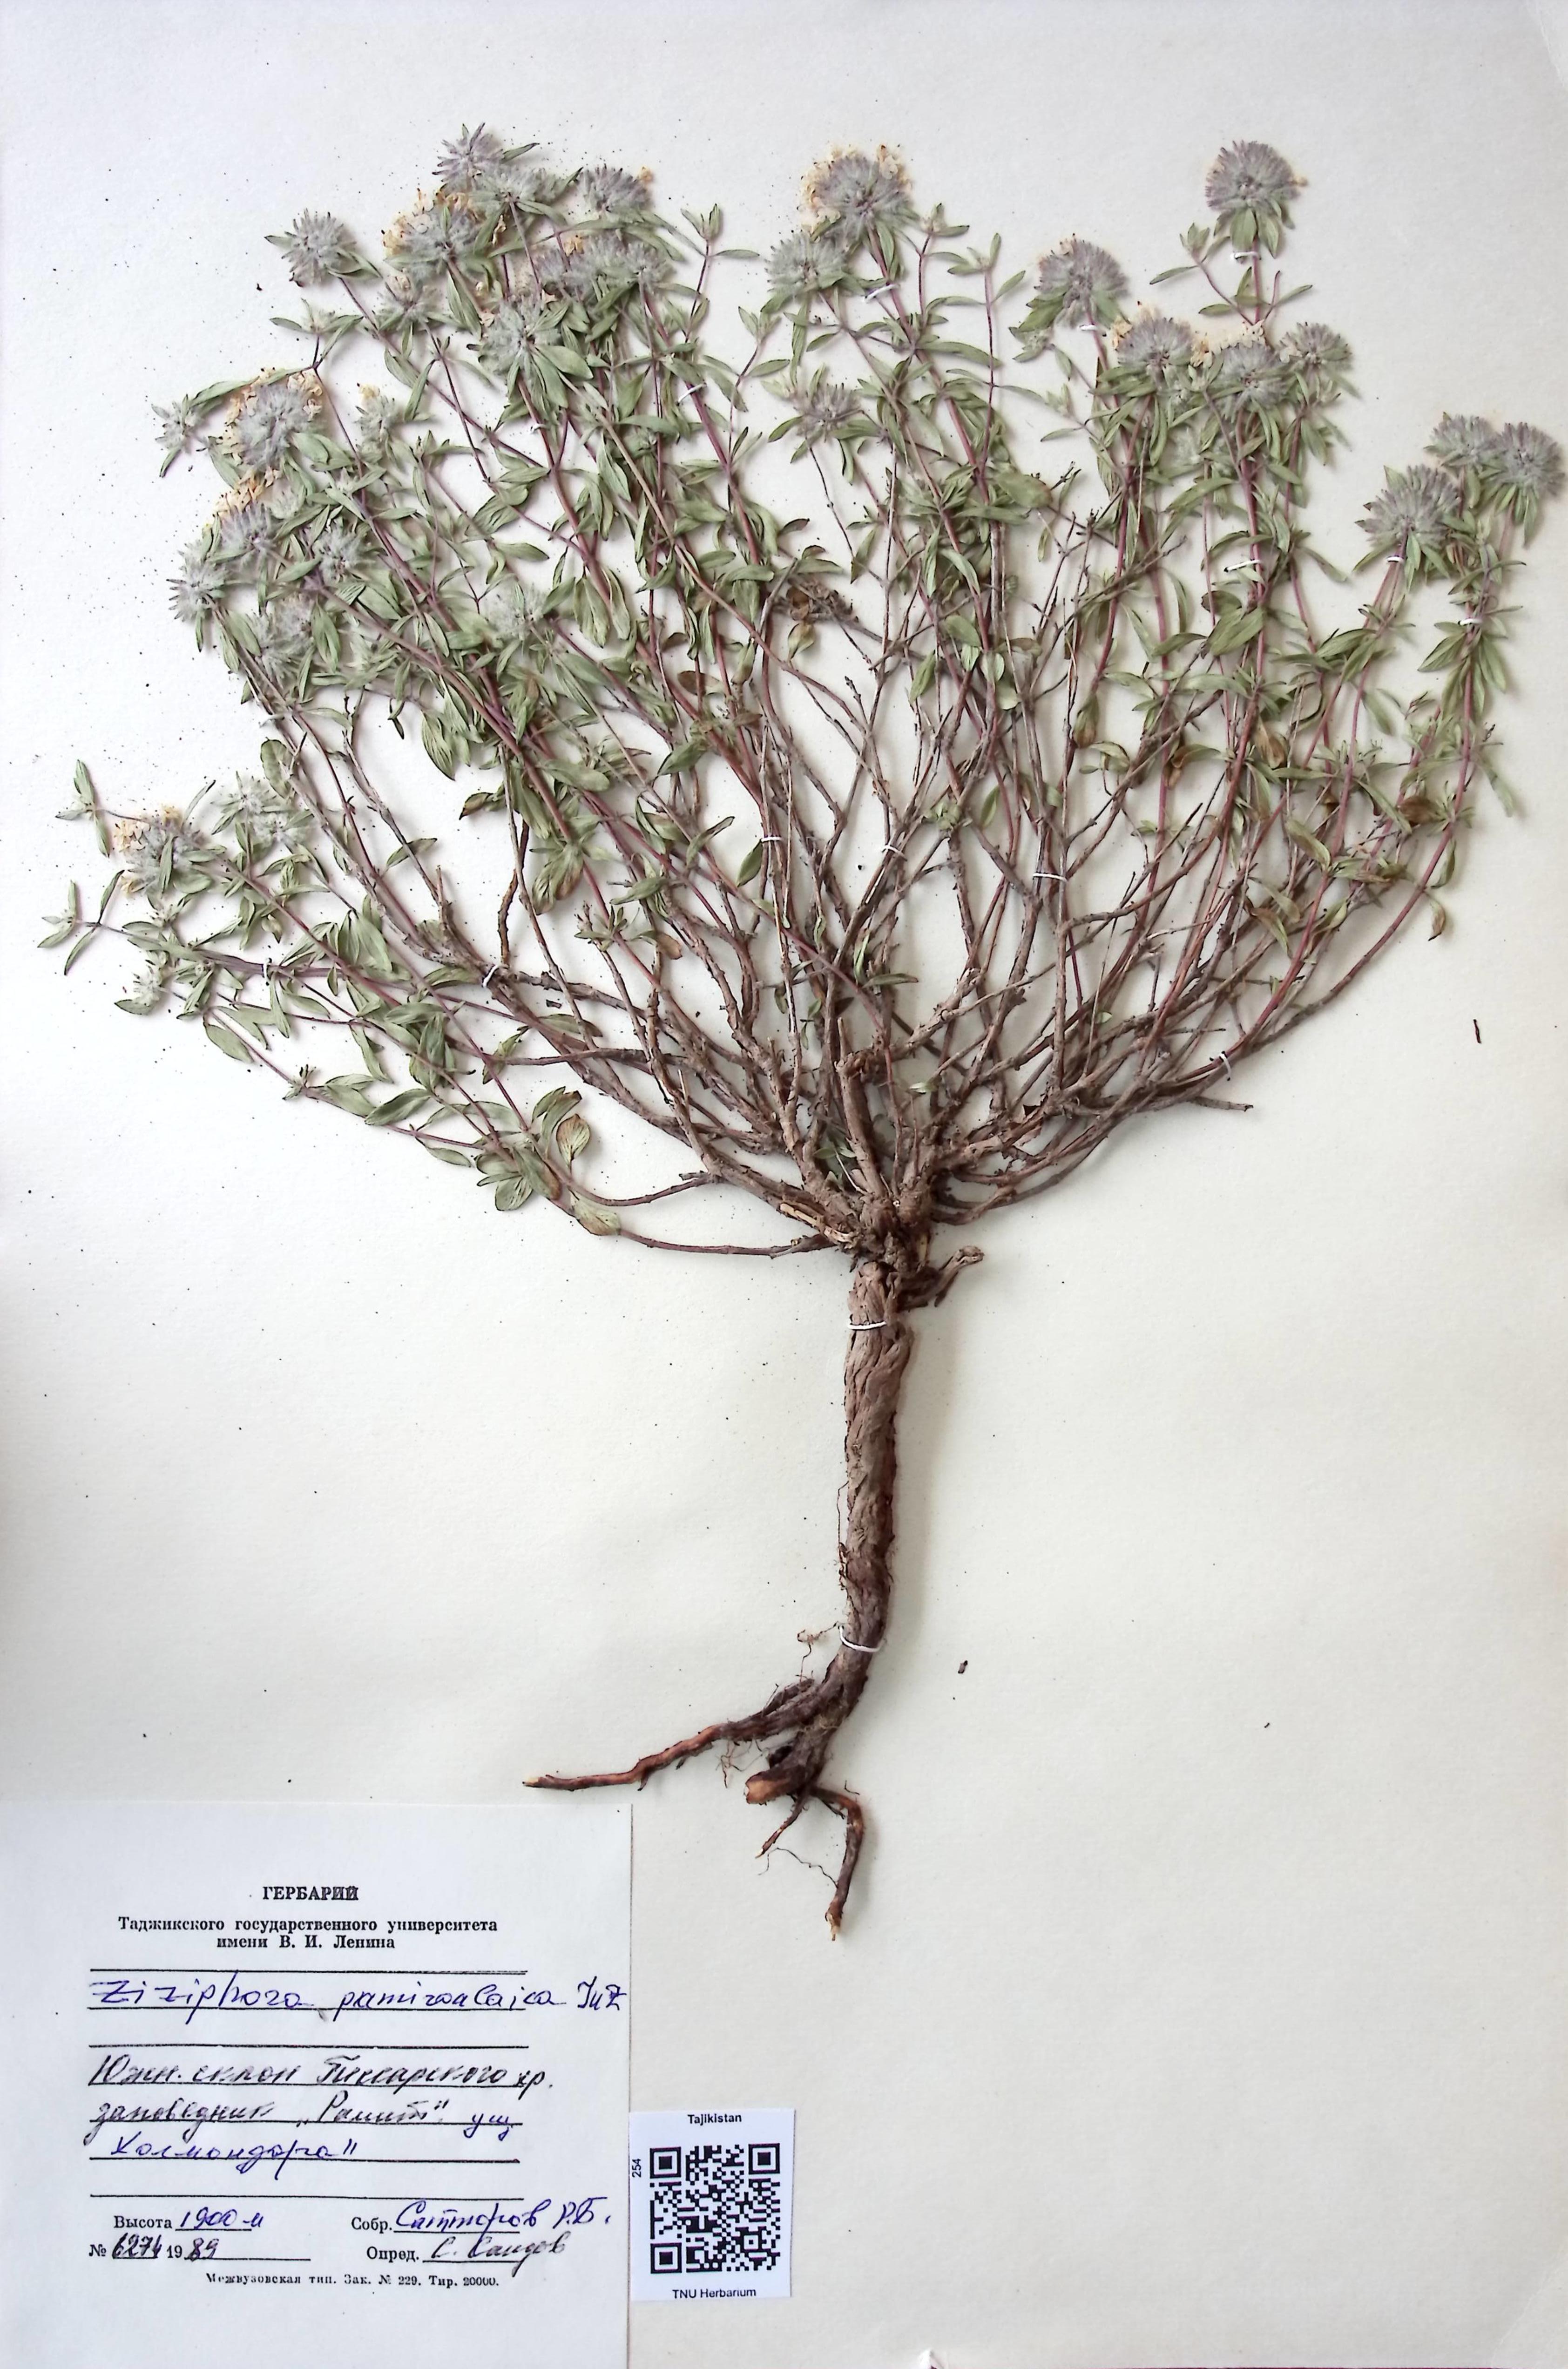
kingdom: Plantae
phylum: Tracheophyta
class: Magnoliopsida
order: Lamiales
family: Lamiaceae
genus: Ziziphora
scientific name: Ziziphora pamiroalaica
